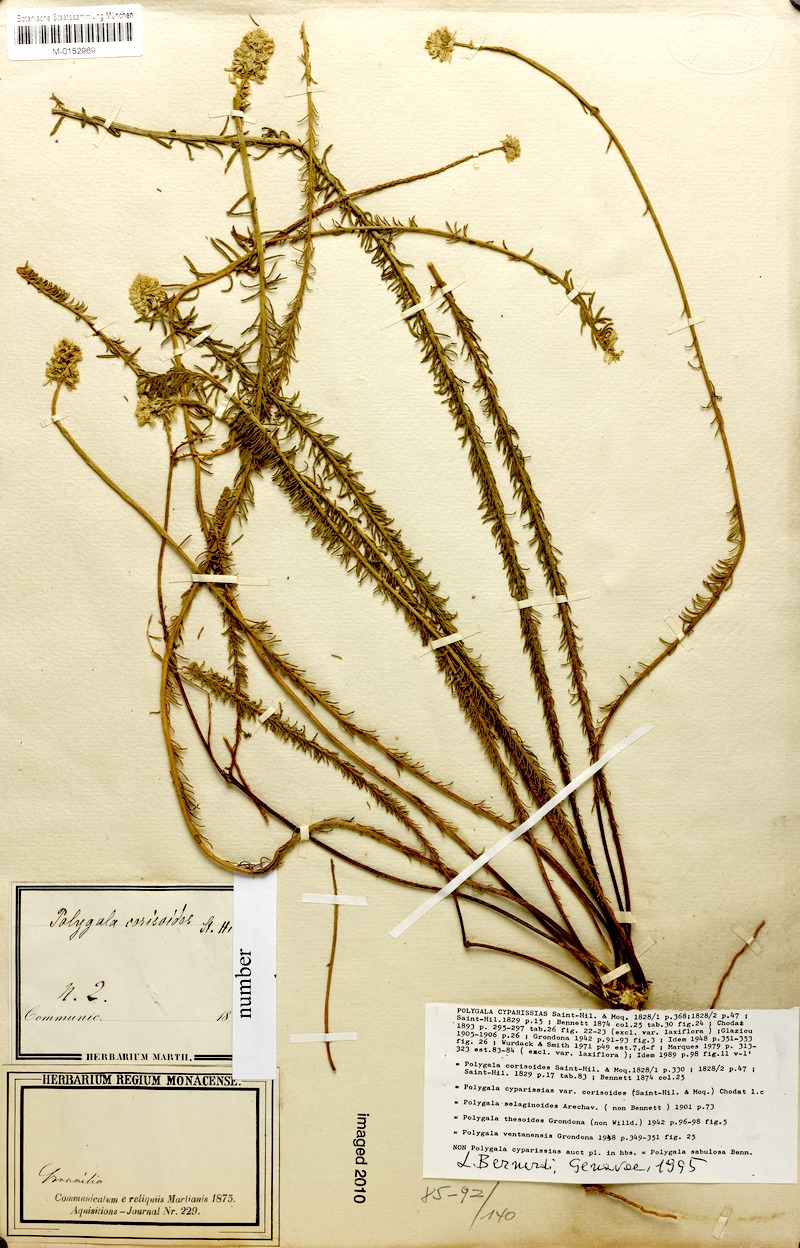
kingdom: Plantae
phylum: Tracheophyta
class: Magnoliopsida
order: Fabales
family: Polygalaceae
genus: Polygala
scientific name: Polygala cyparissias
